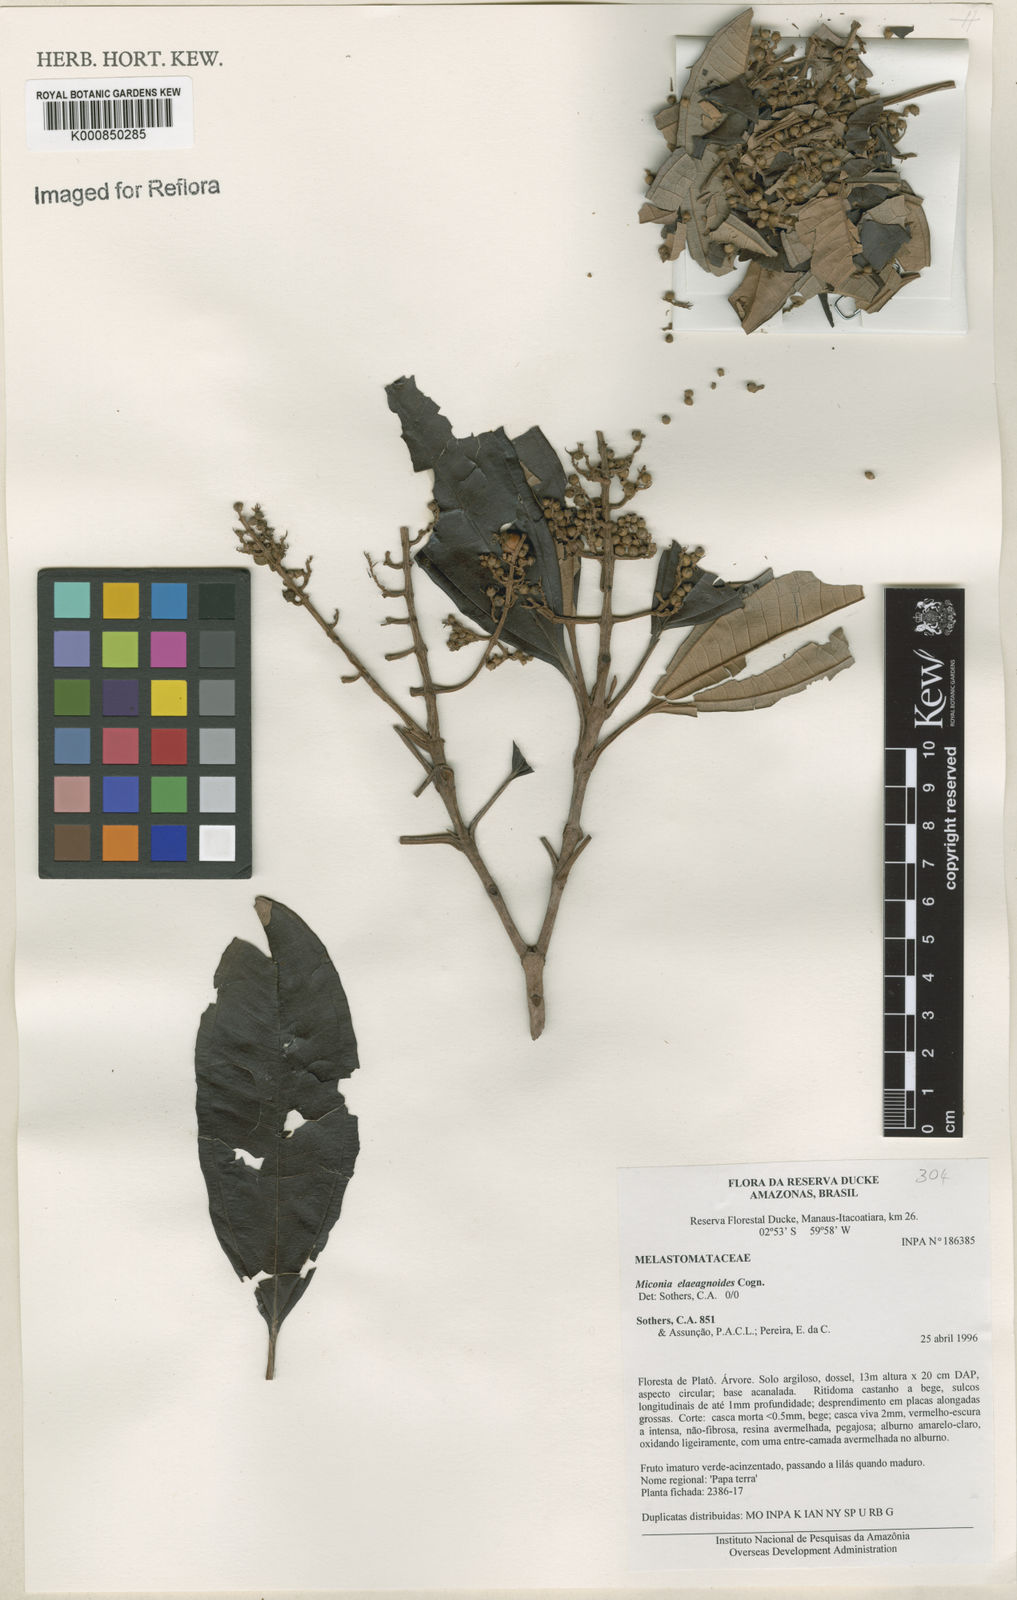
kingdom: Plantae
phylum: Tracheophyta
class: Magnoliopsida
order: Myrtales
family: Melastomataceae
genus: Miconia
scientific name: Miconia
